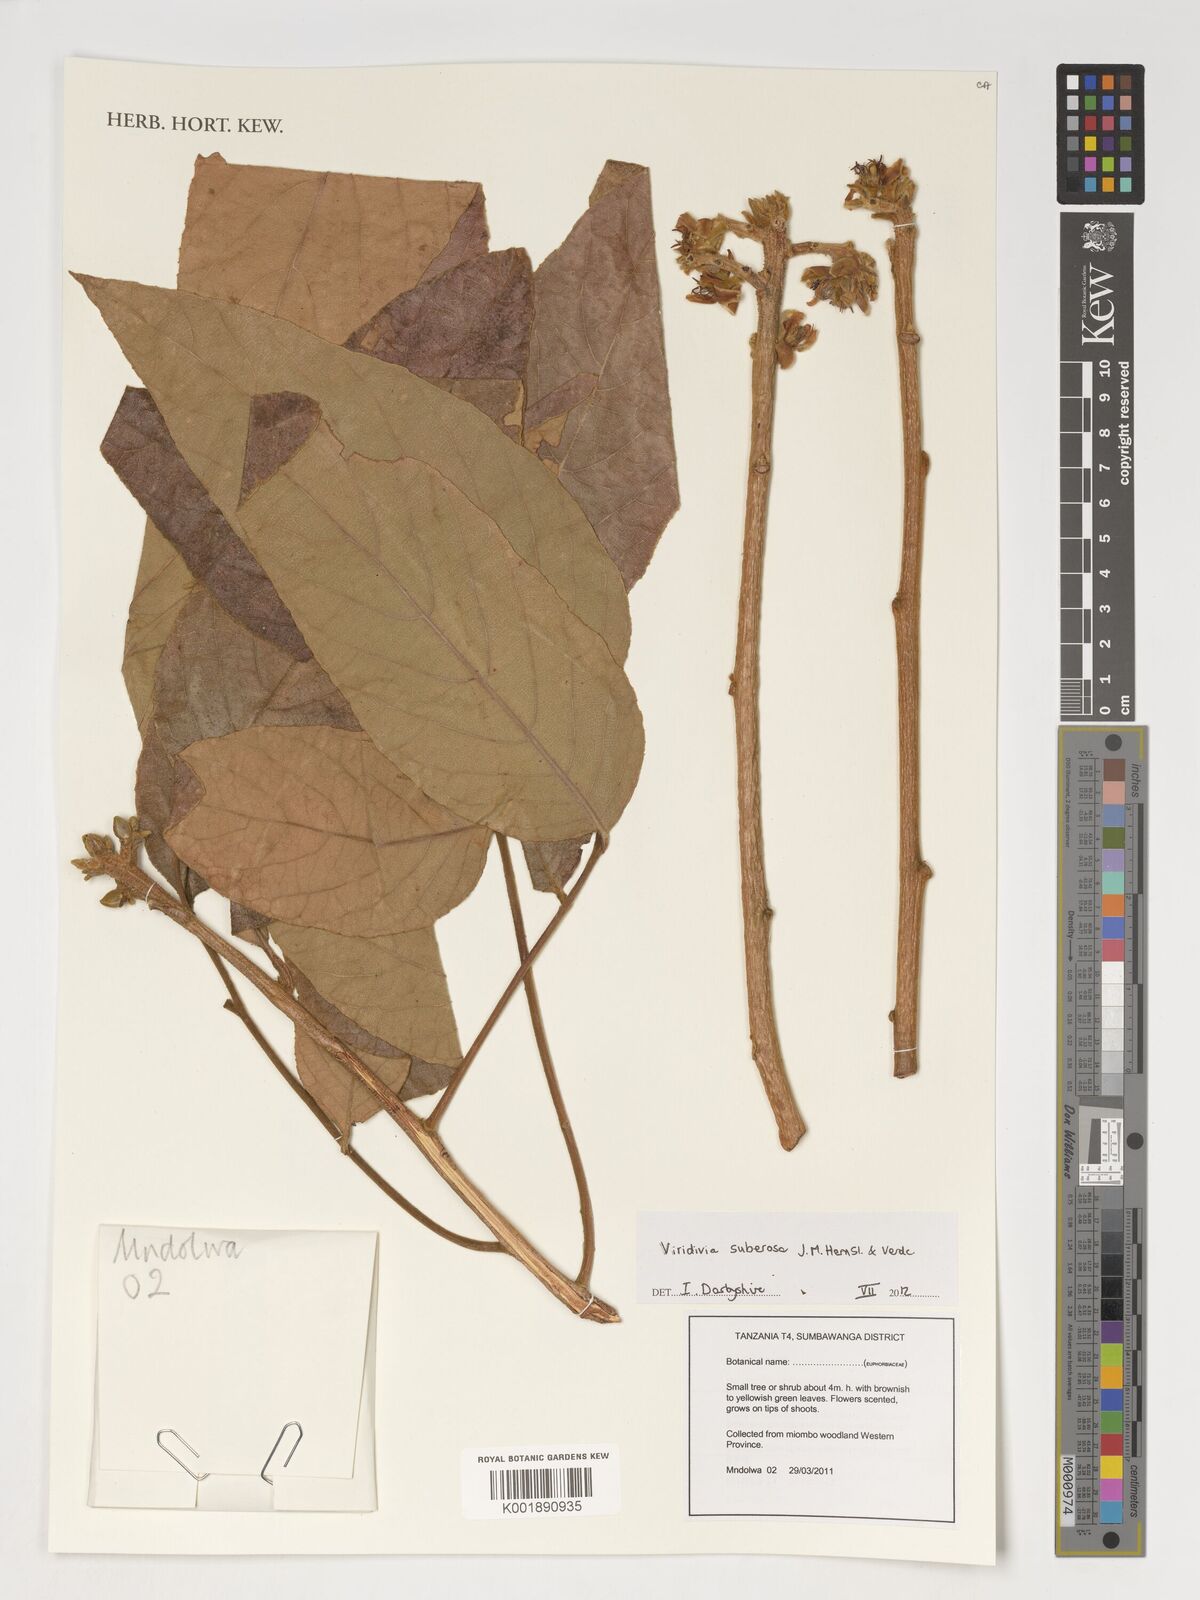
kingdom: Plantae
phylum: Tracheophyta
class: Magnoliopsida
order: Malpighiales
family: Passifloraceae
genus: Viridivia
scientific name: Viridivia suberosa
